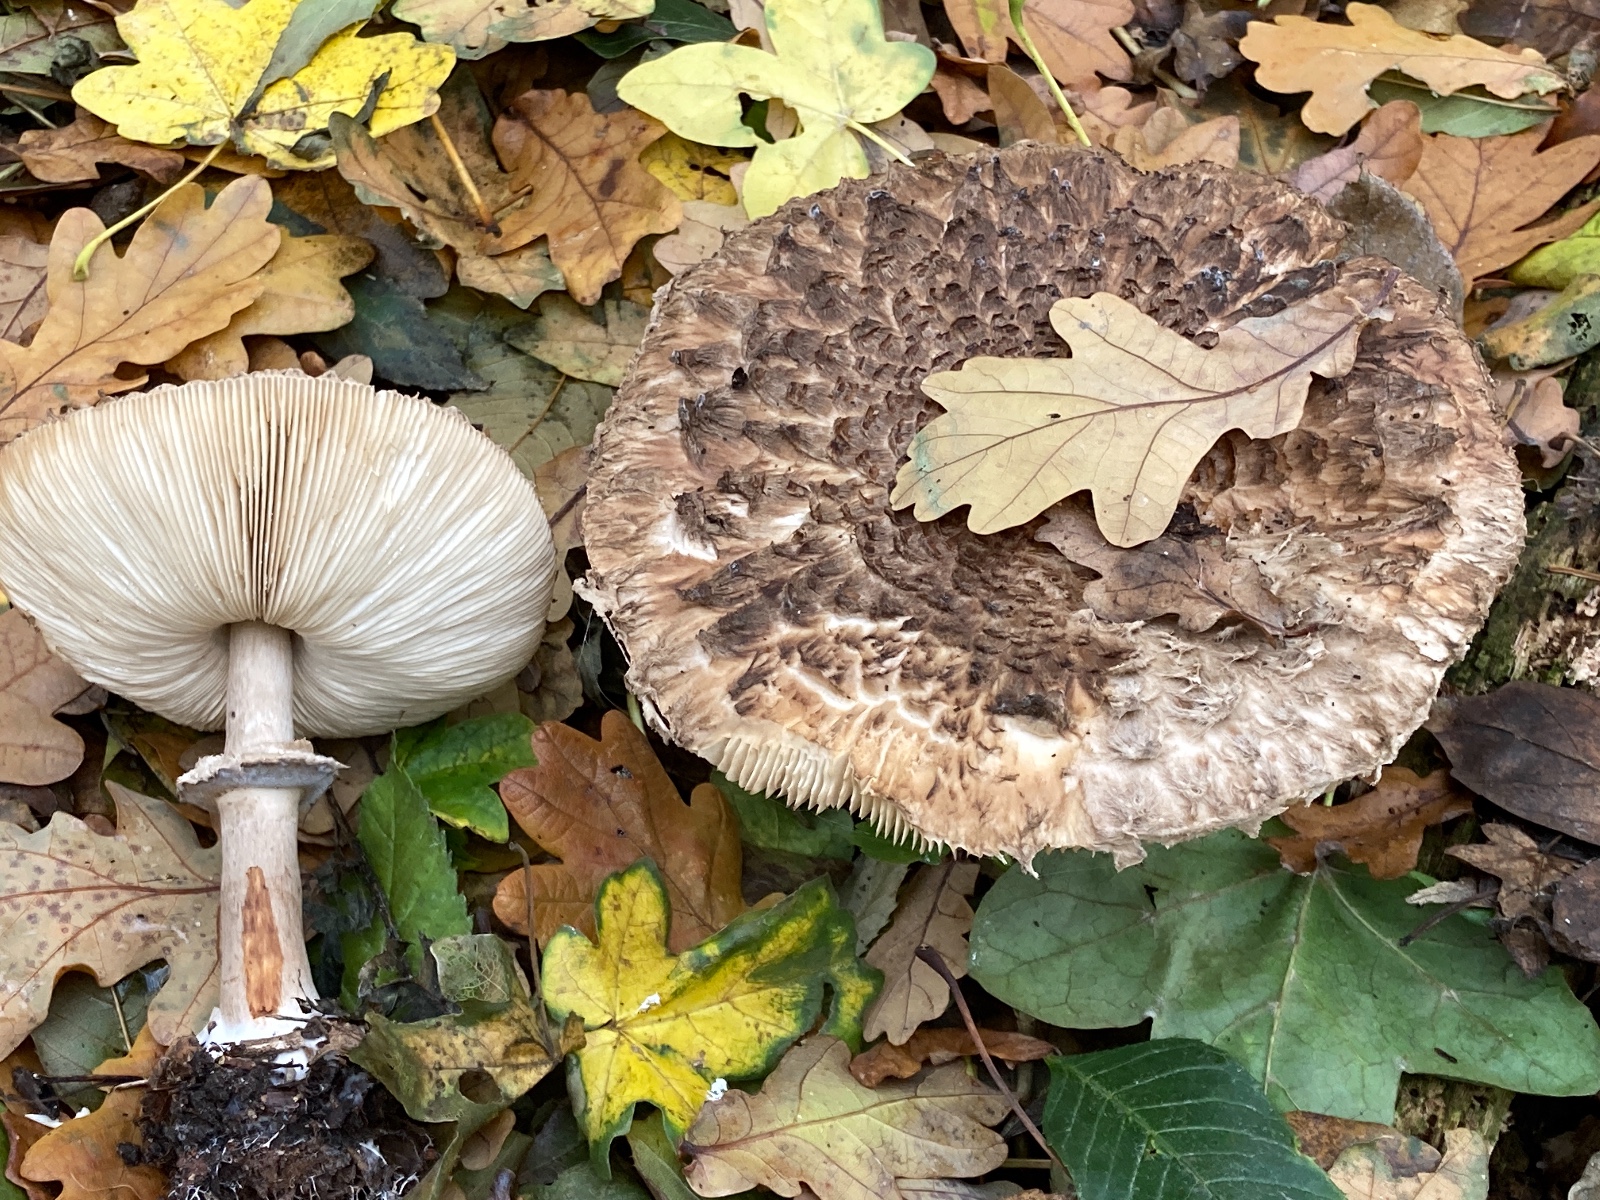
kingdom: Fungi
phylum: Basidiomycota
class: Agaricomycetes
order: Agaricales
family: Agaricaceae
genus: Chlorophyllum
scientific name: Chlorophyllum olivieri
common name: almindelig rabarberhat
